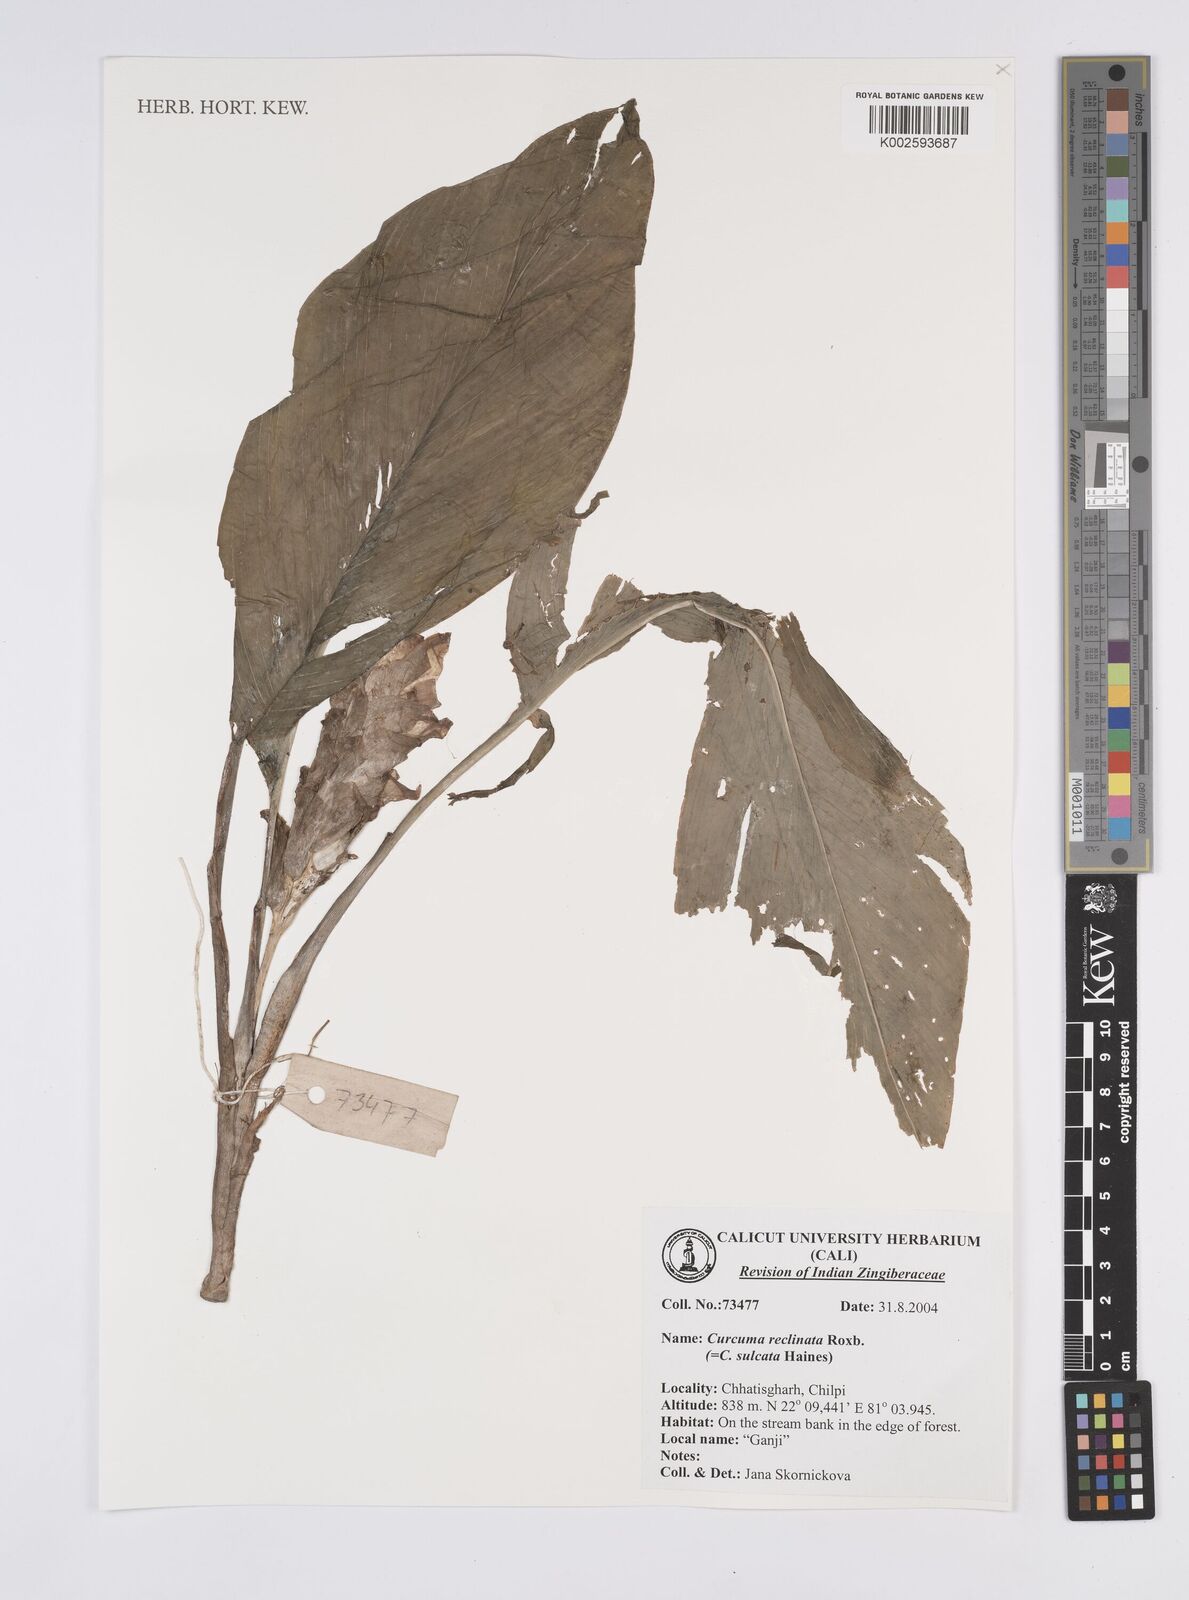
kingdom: Plantae
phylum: Tracheophyta
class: Liliopsida
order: Zingiberales
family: Zingiberaceae
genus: Curcuma
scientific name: Curcuma reclinata
